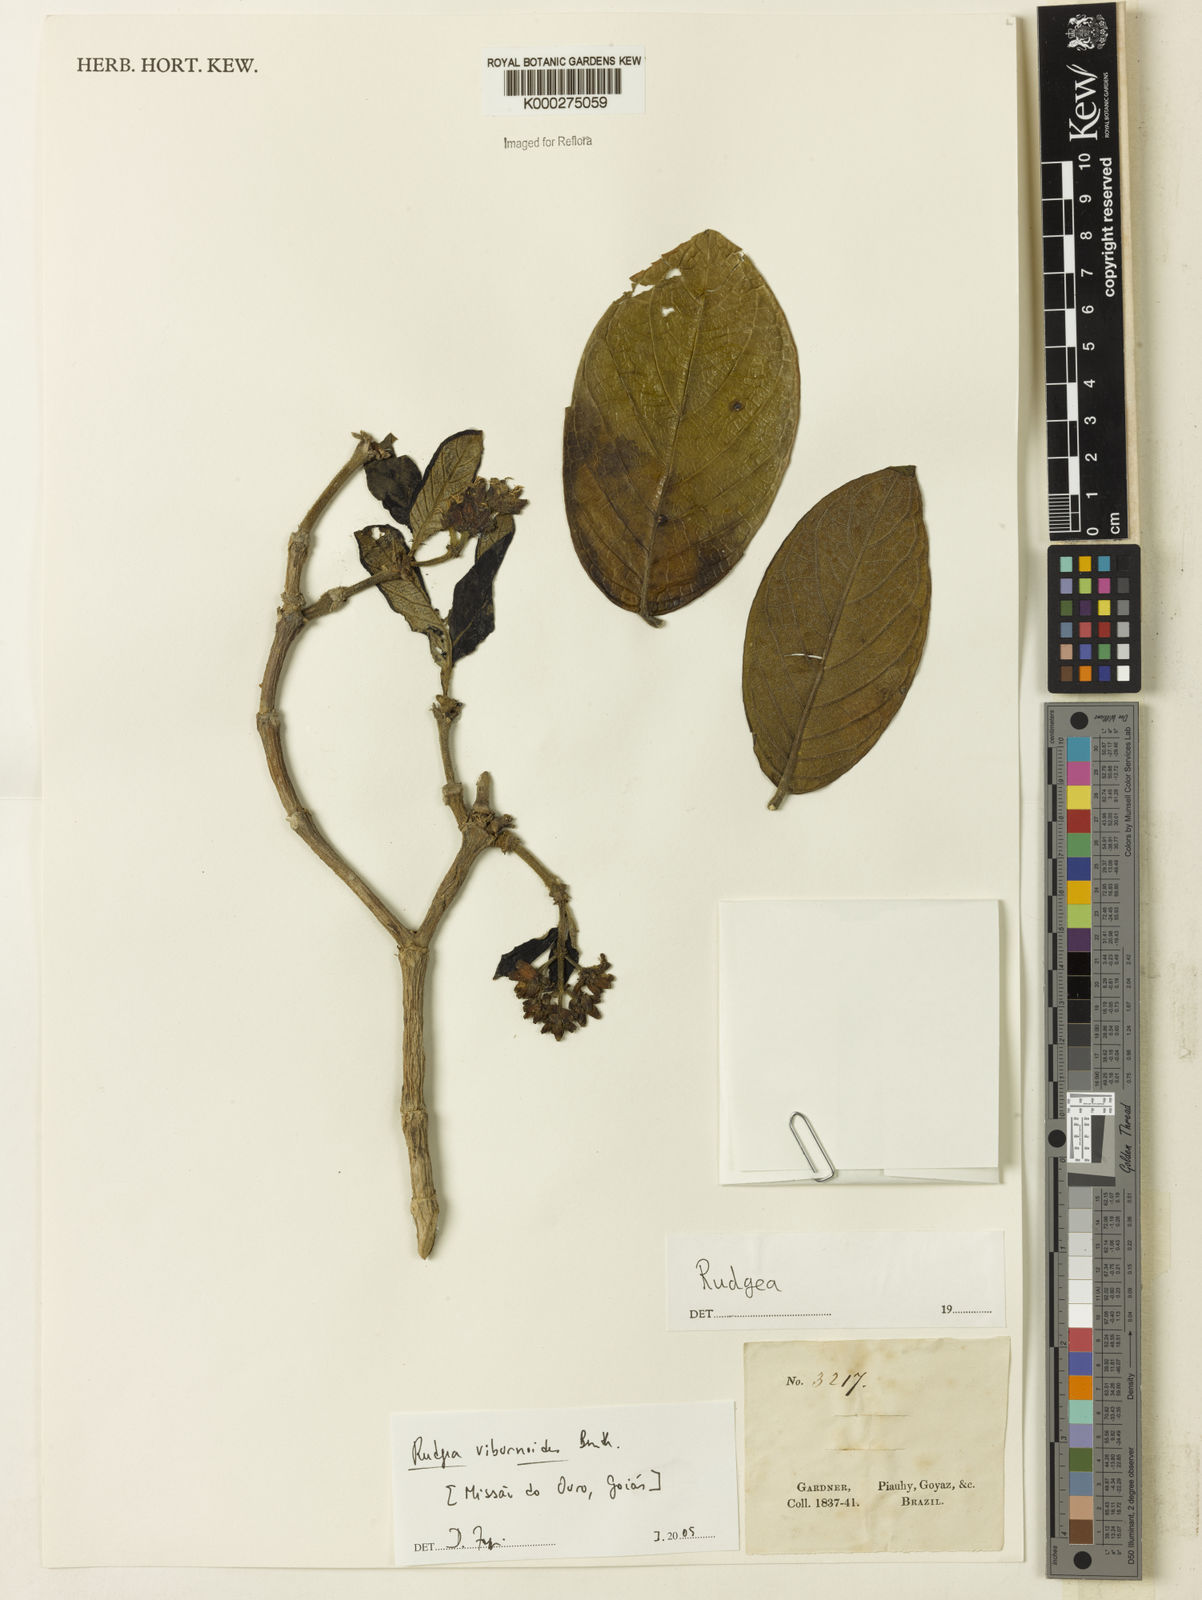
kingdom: Plantae
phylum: Tracheophyta
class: Magnoliopsida
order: Gentianales
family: Rubiaceae
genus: Rudgea
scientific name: Rudgea viburnoides
